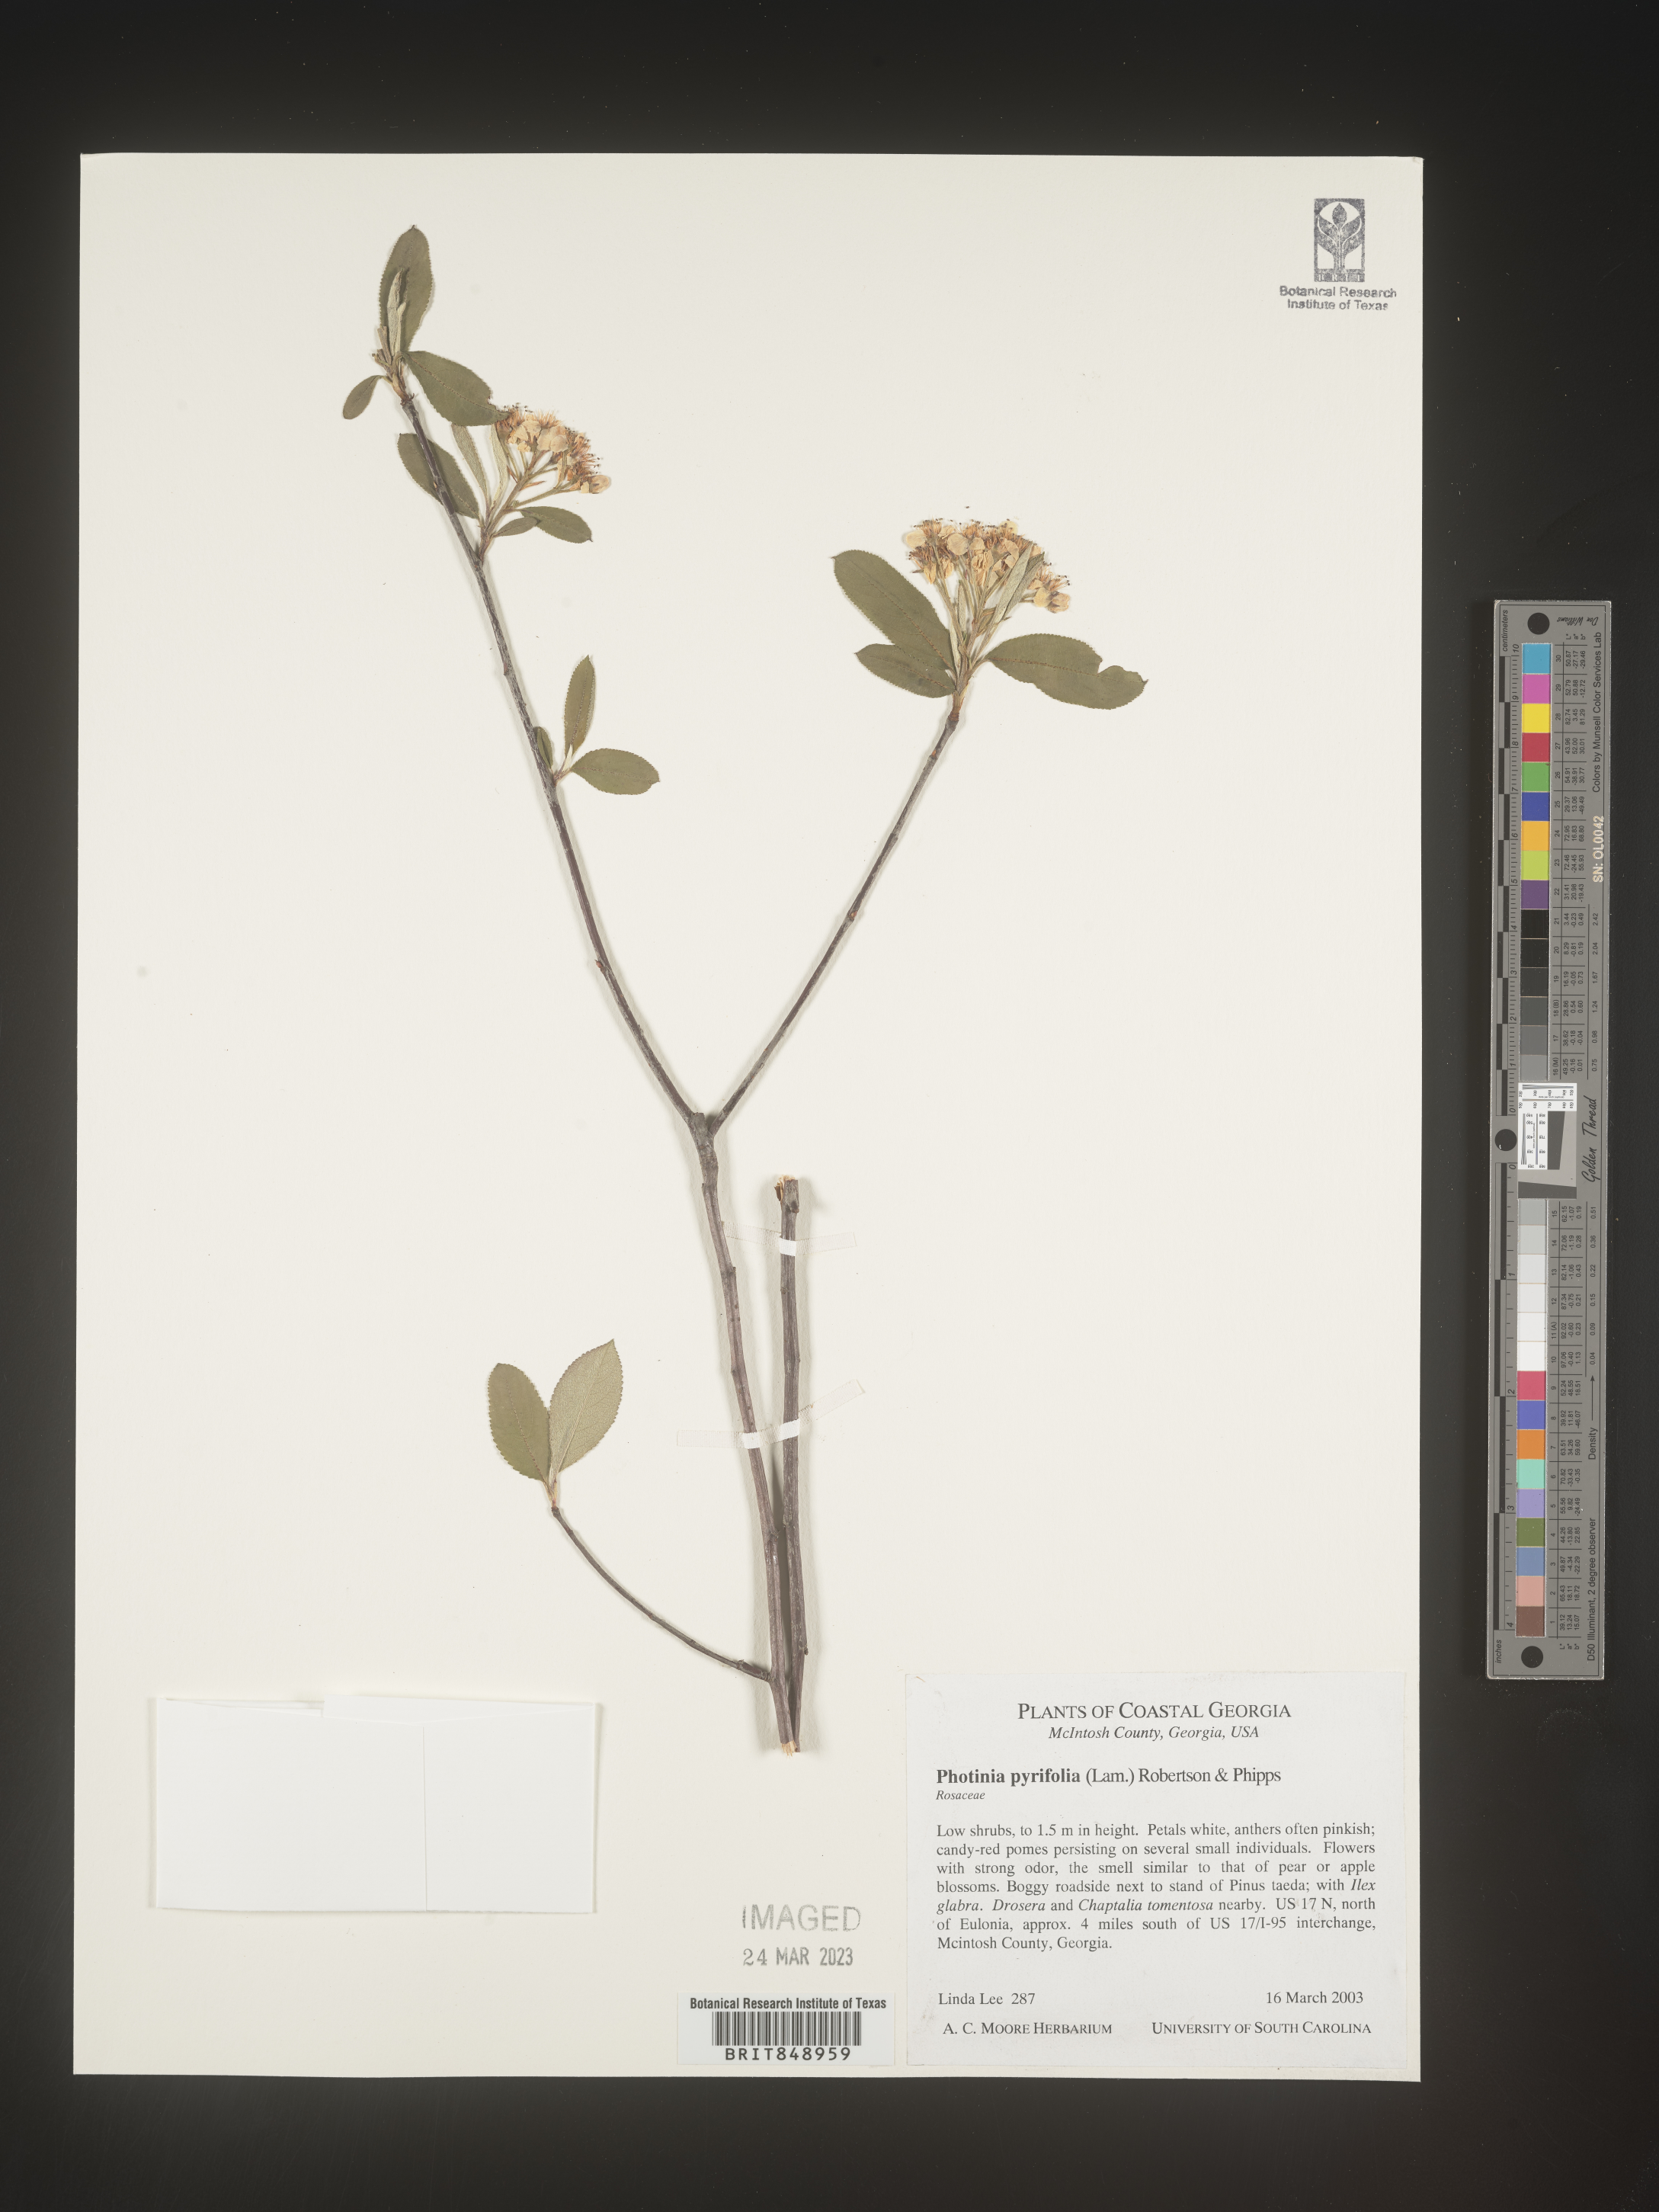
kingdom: Plantae
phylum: Tracheophyta
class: Magnoliopsida
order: Rosales
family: Rosaceae
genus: Photinia
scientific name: Photinia
